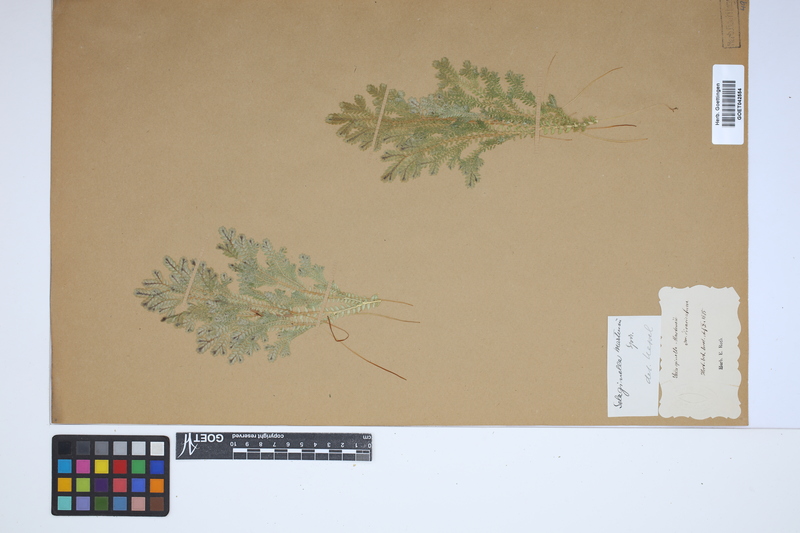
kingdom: Plantae
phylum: Tracheophyta
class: Lycopodiopsida
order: Selaginellales
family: Selaginellaceae
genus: Selaginella
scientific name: Selaginella martensii
